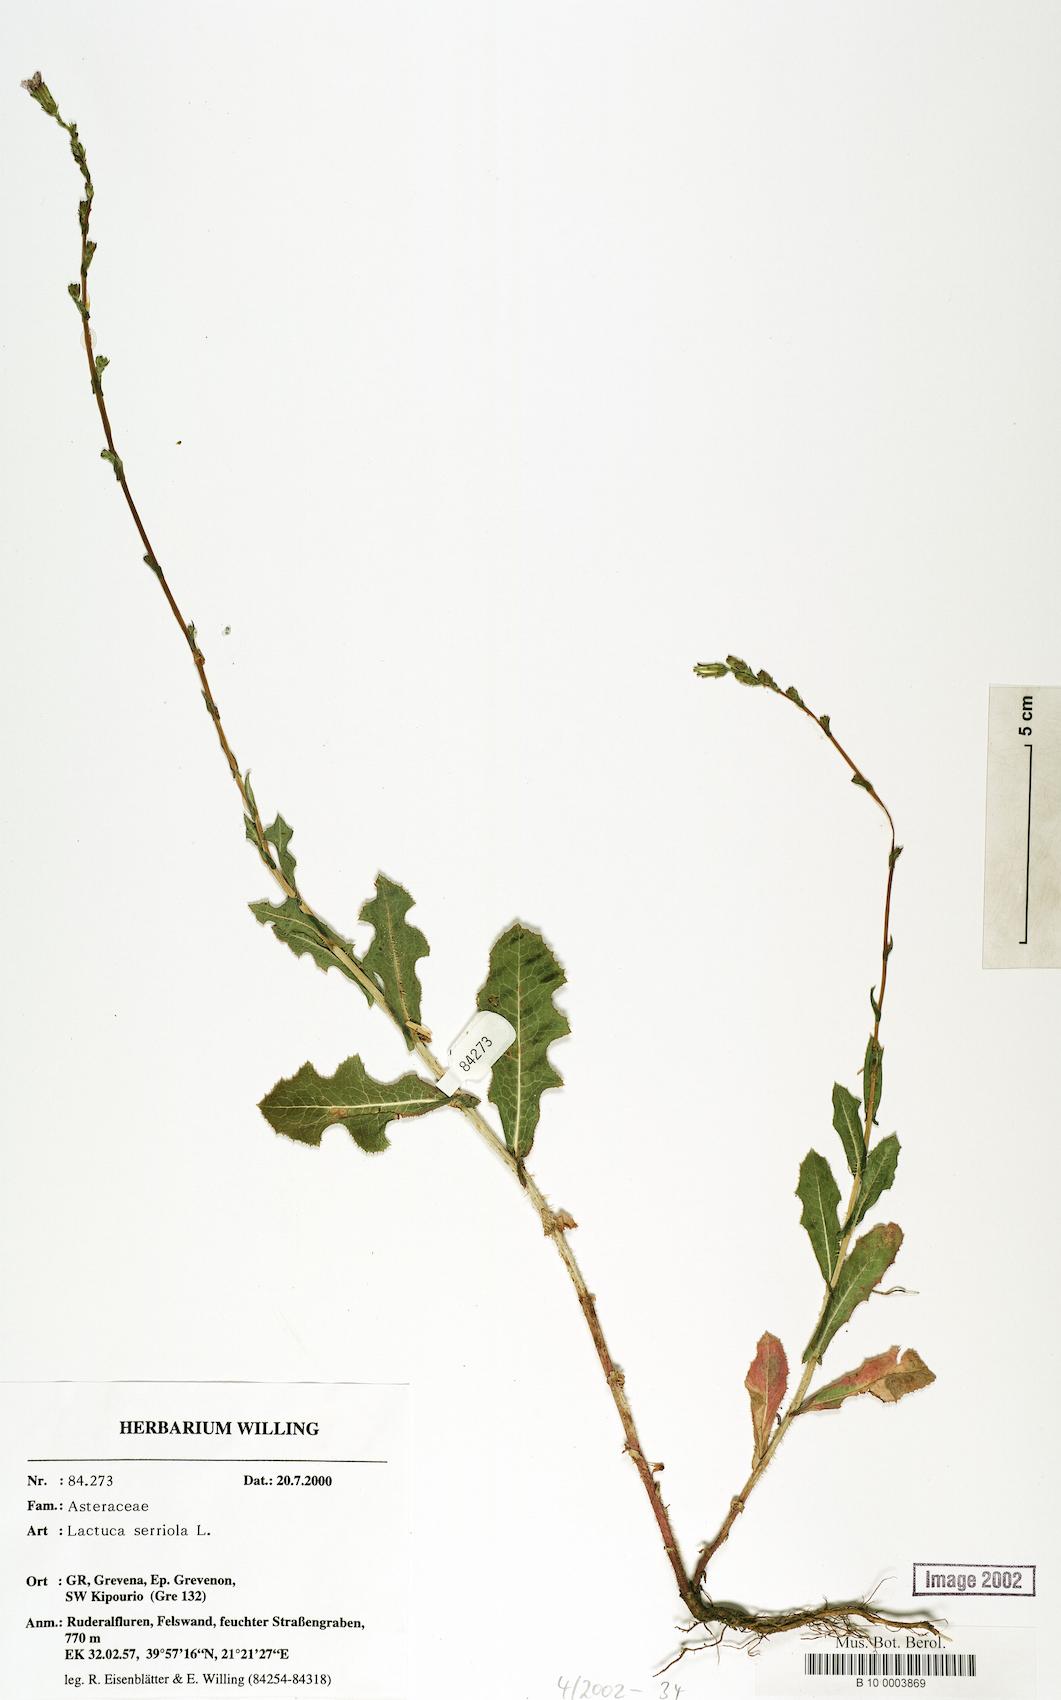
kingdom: Plantae
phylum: Tracheophyta
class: Magnoliopsida
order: Asterales
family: Asteraceae
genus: Lactuca
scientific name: Lactuca serriola
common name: Prickly lettuce
